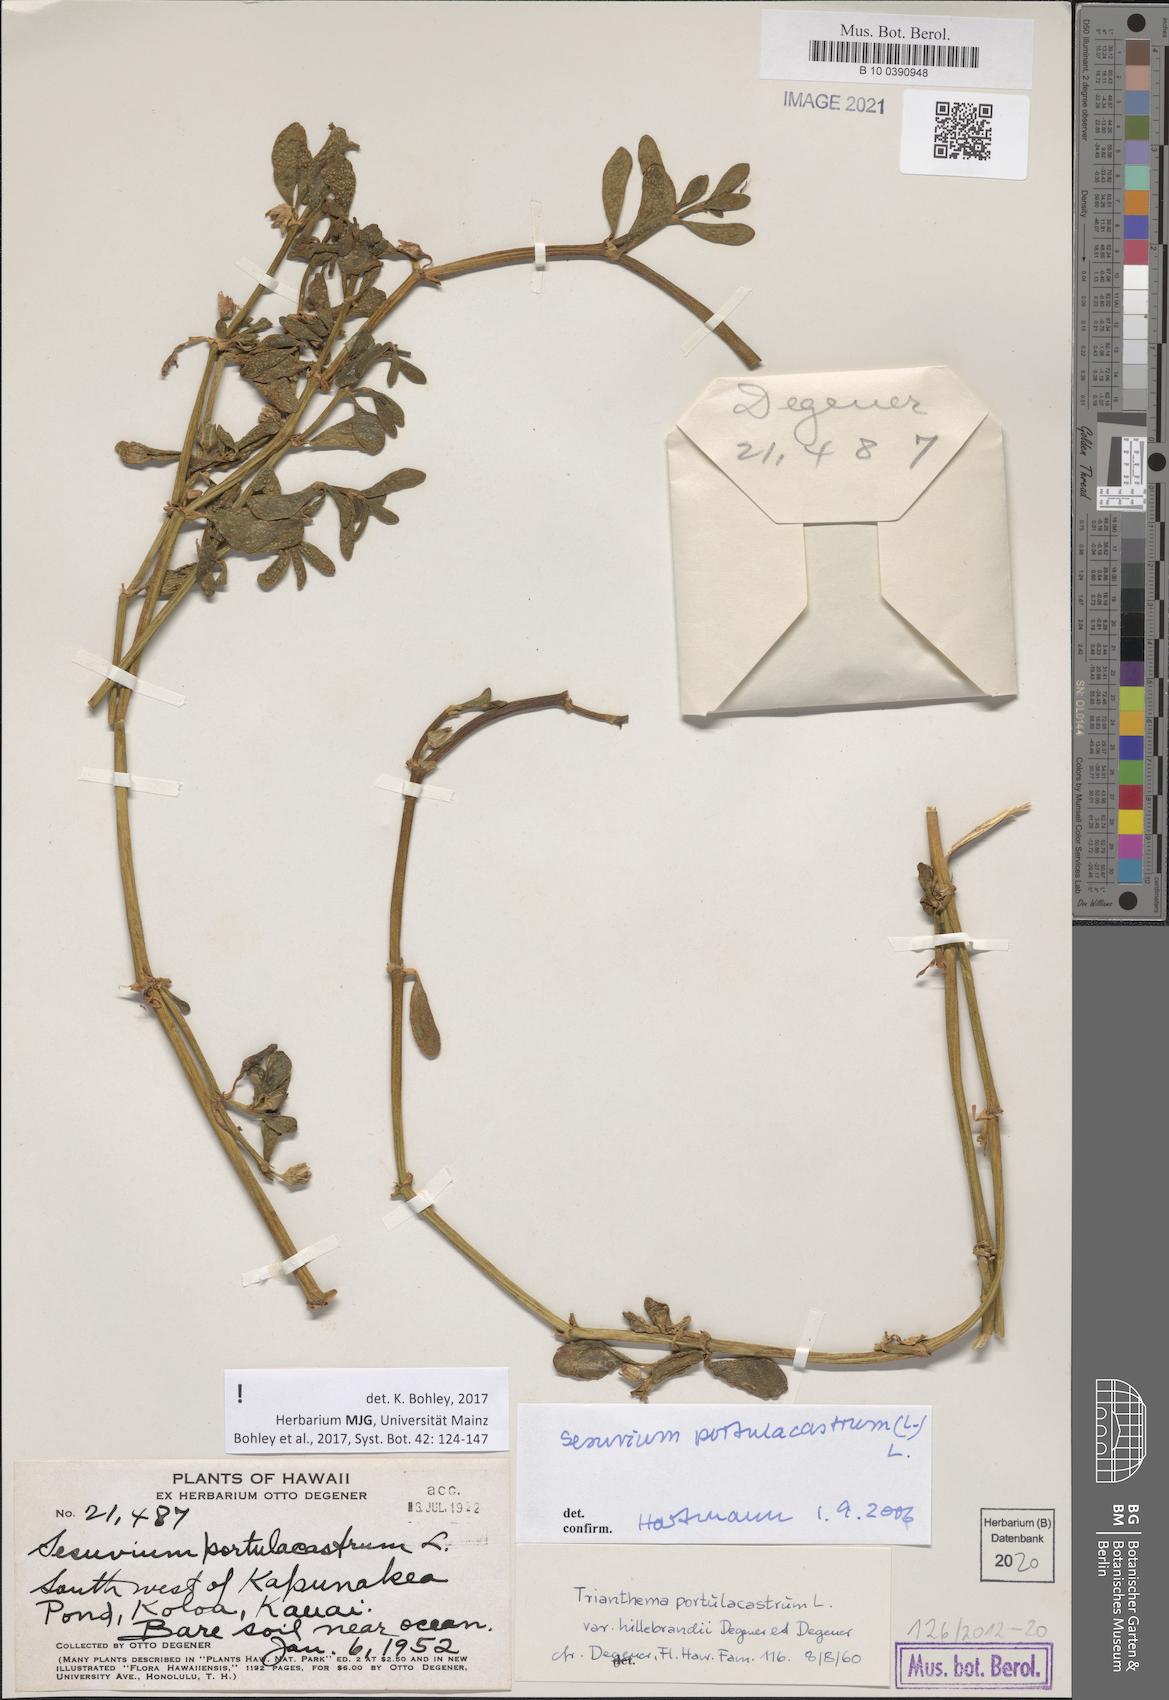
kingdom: Plantae
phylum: Tracheophyta
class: Magnoliopsida
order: Caryophyllales
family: Aizoaceae
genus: Sesuvium
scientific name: Sesuvium portulacastrum
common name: Sea-purslane
